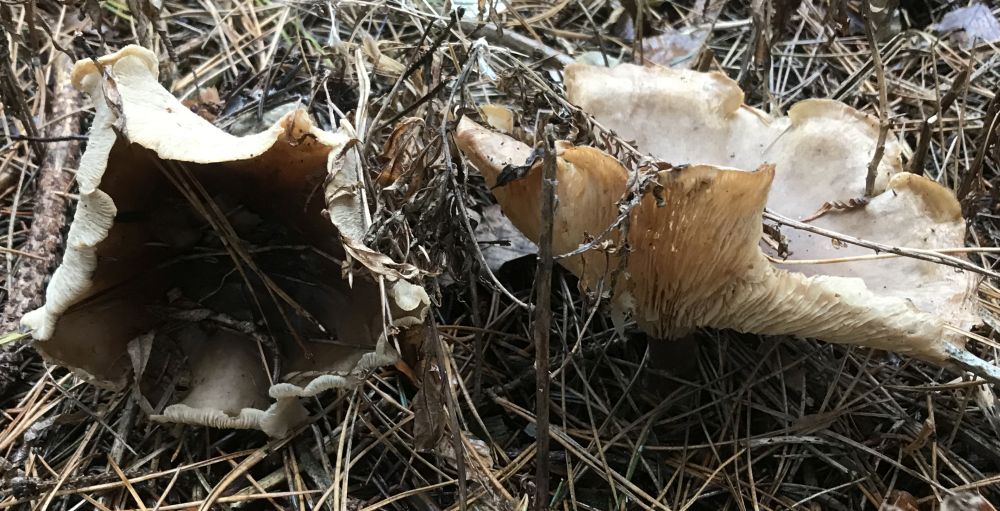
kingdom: Fungi
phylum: Basidiomycota
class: Agaricomycetes
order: Agaricales
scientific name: Agaricales
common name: champignonordenen
